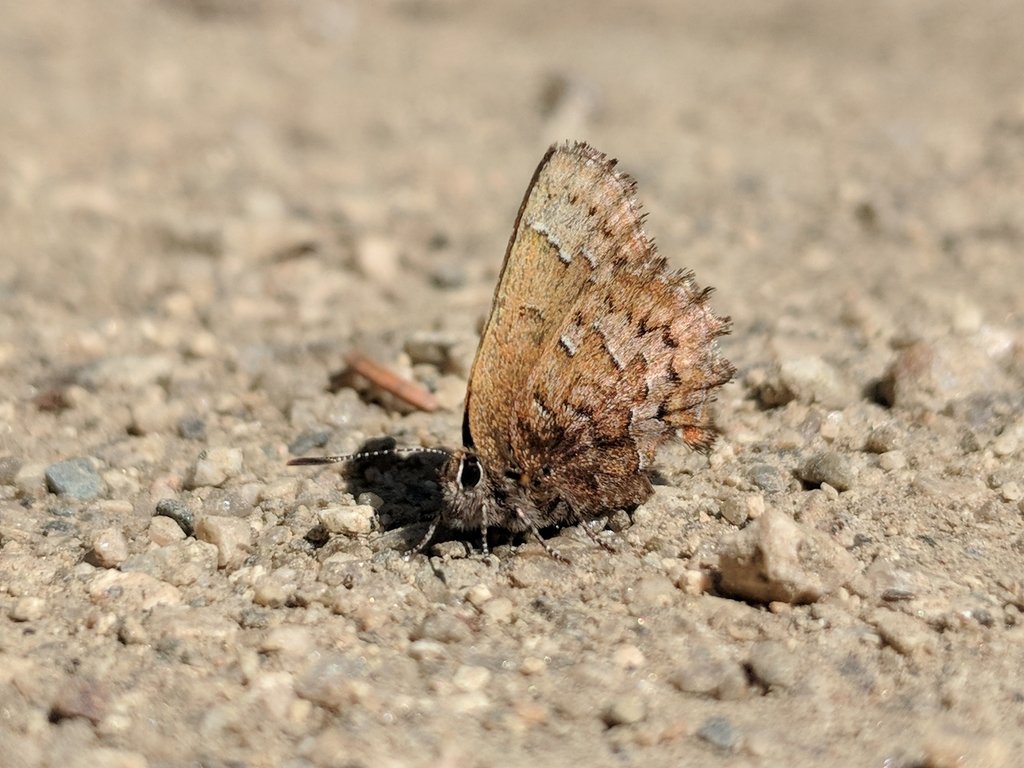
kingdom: Animalia
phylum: Arthropoda
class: Insecta
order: Lepidoptera
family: Lycaenidae
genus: Incisalia
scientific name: Incisalia niphon
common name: Eastern Pine Elfin
